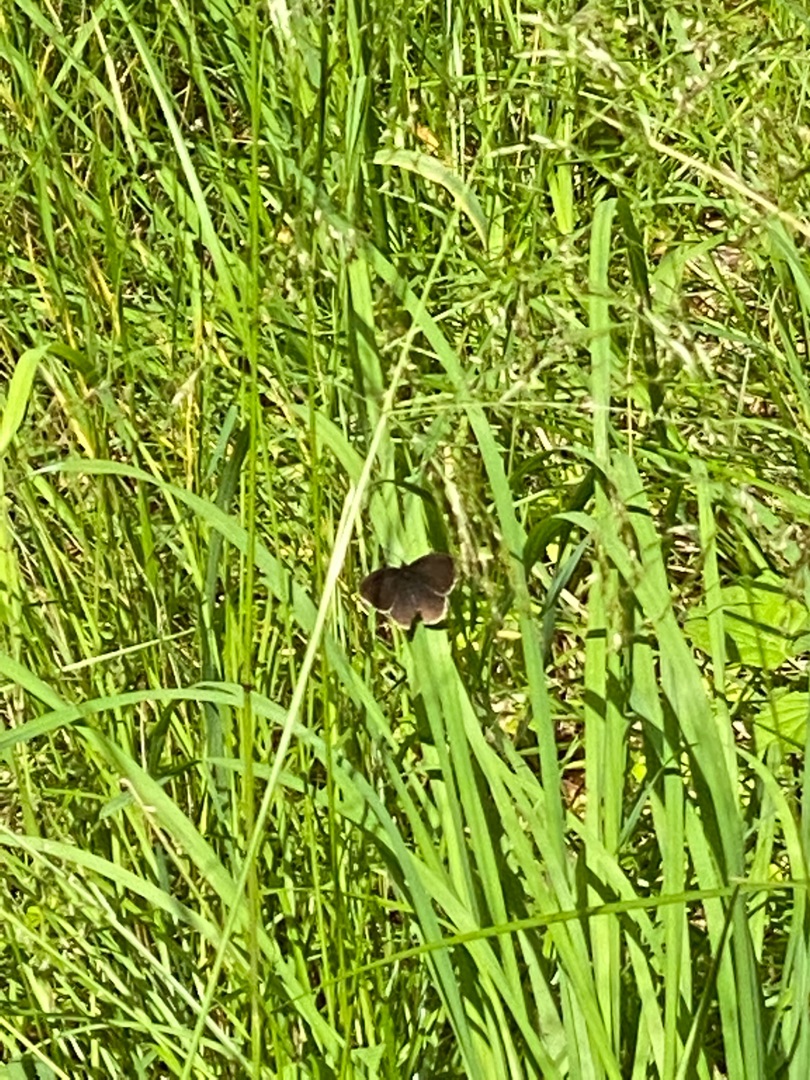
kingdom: Animalia
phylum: Arthropoda
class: Insecta
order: Lepidoptera
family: Nymphalidae
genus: Aphantopus
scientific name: Aphantopus hyperantus
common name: Engrandøje
